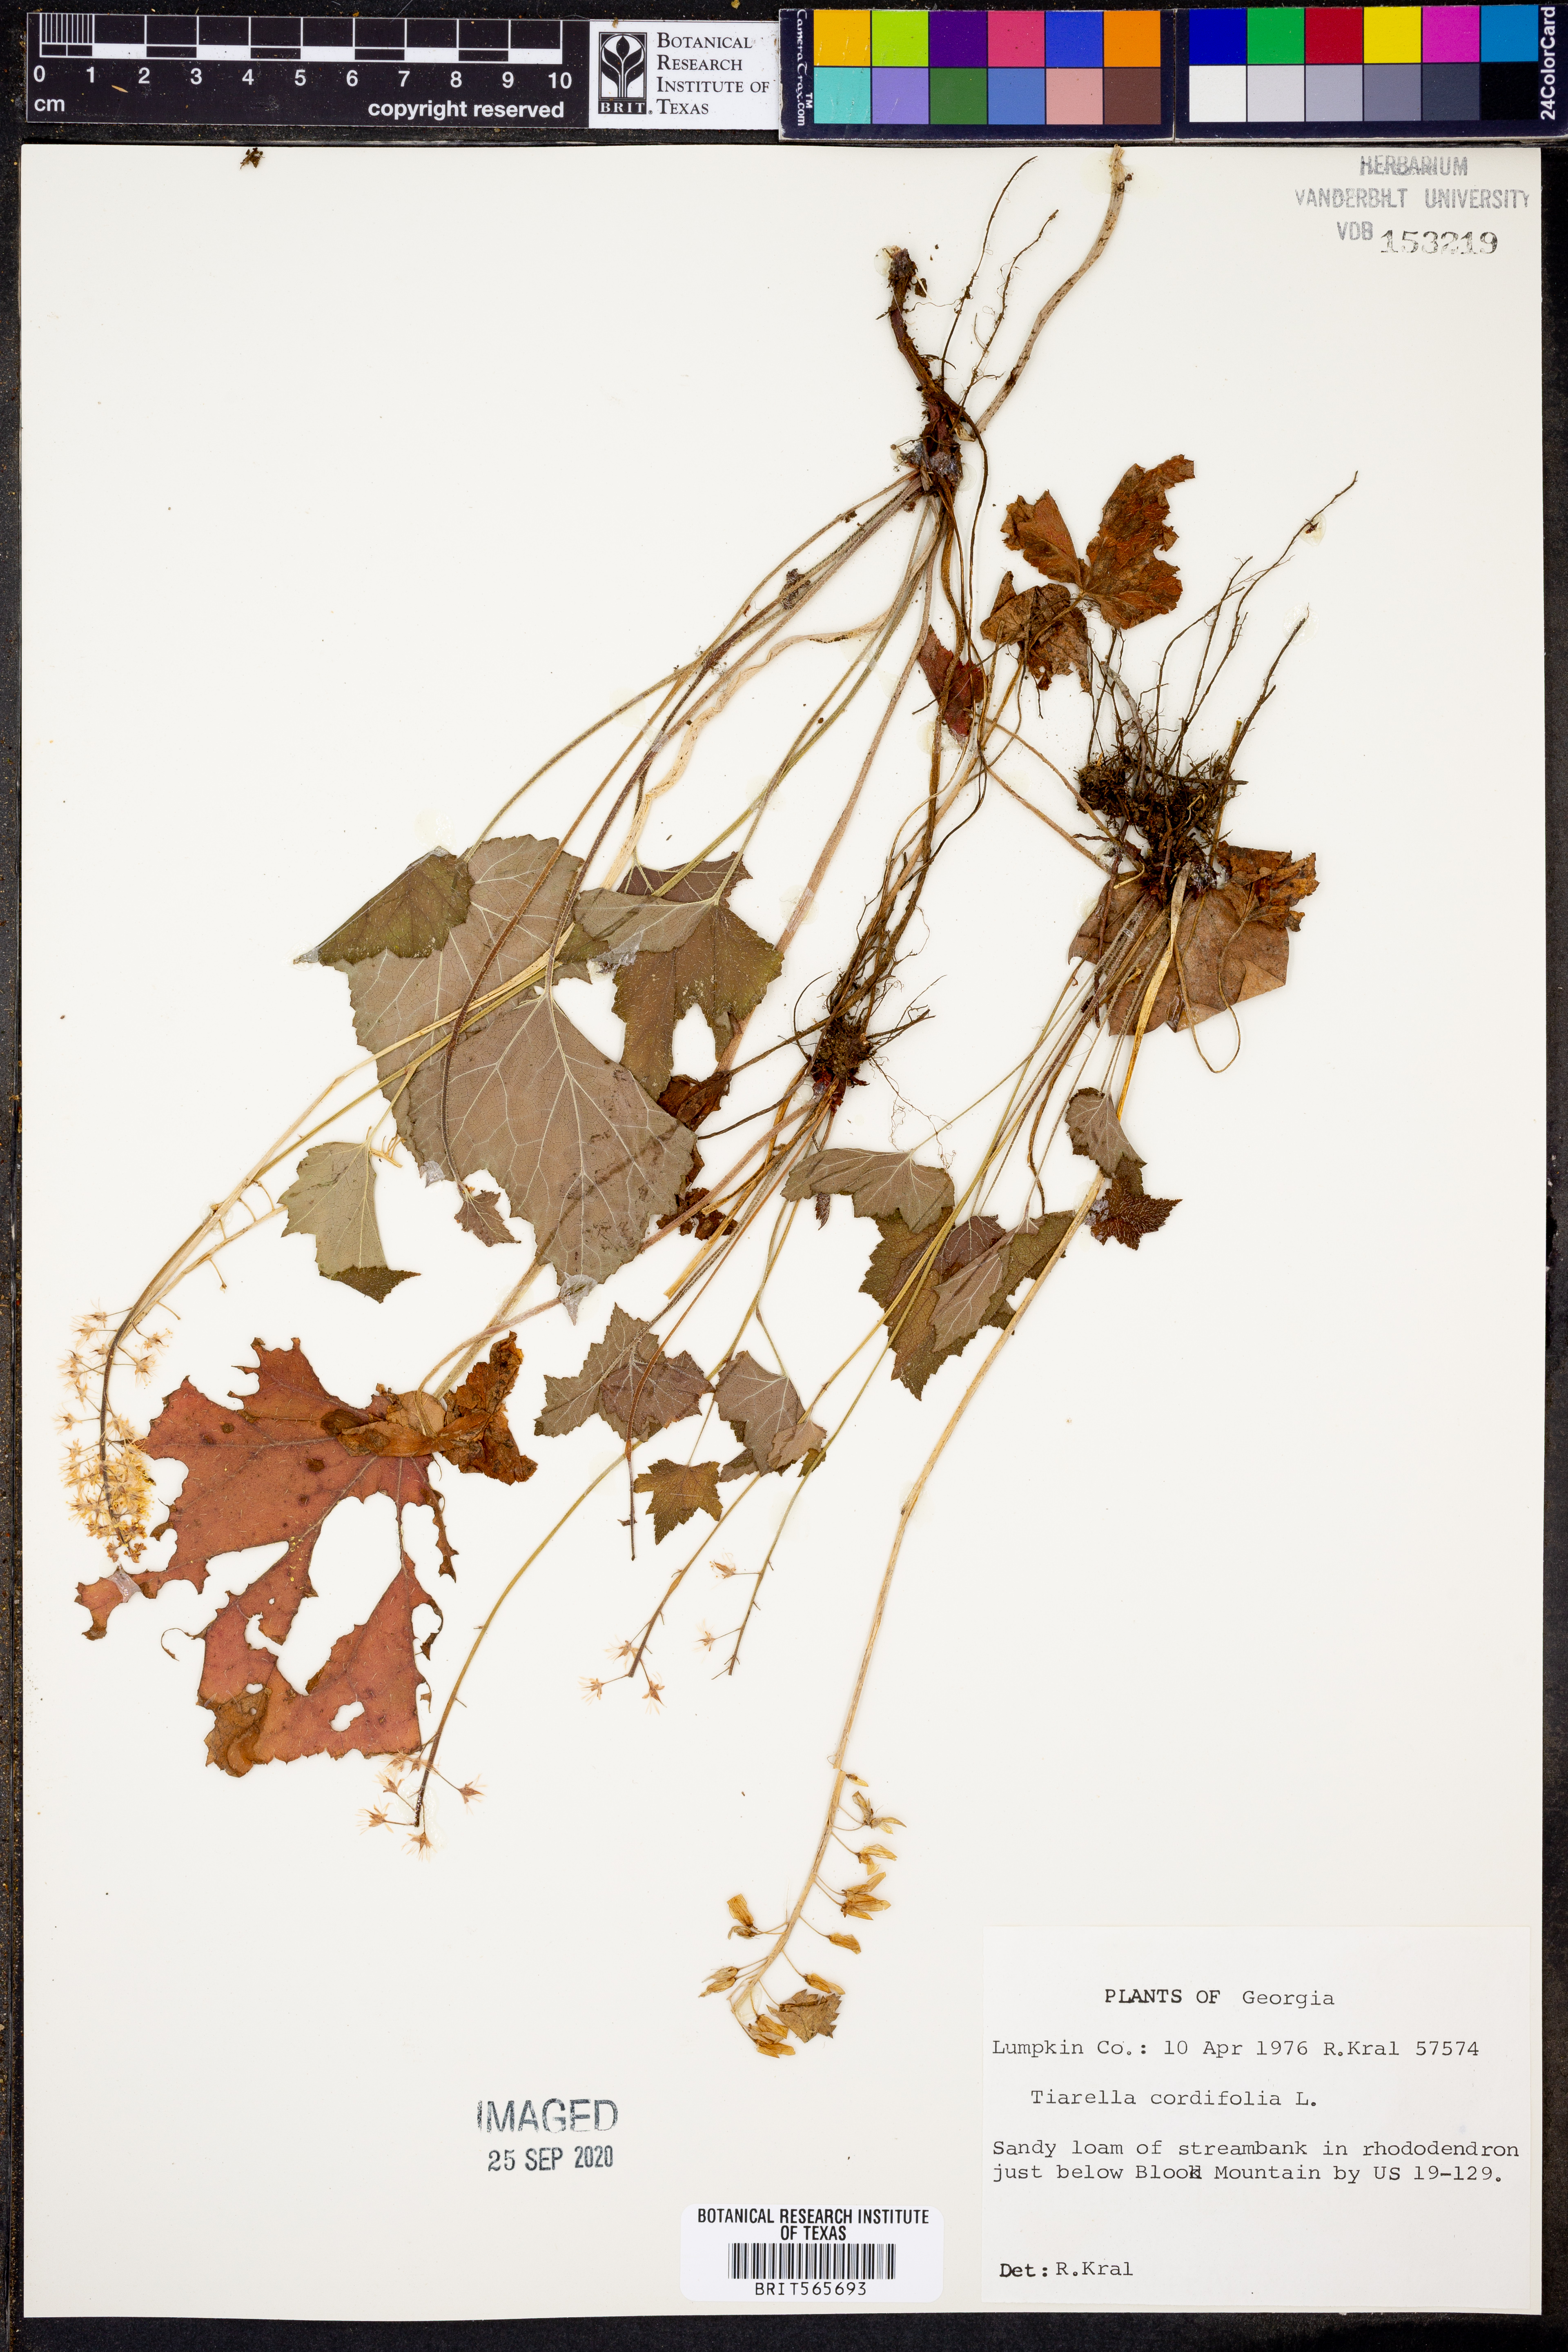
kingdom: Plantae
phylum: Tracheophyta
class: Magnoliopsida
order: Saxifragales
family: Saxifragaceae
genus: Tiarella
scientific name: Tiarella cordifolia
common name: Foamflower
